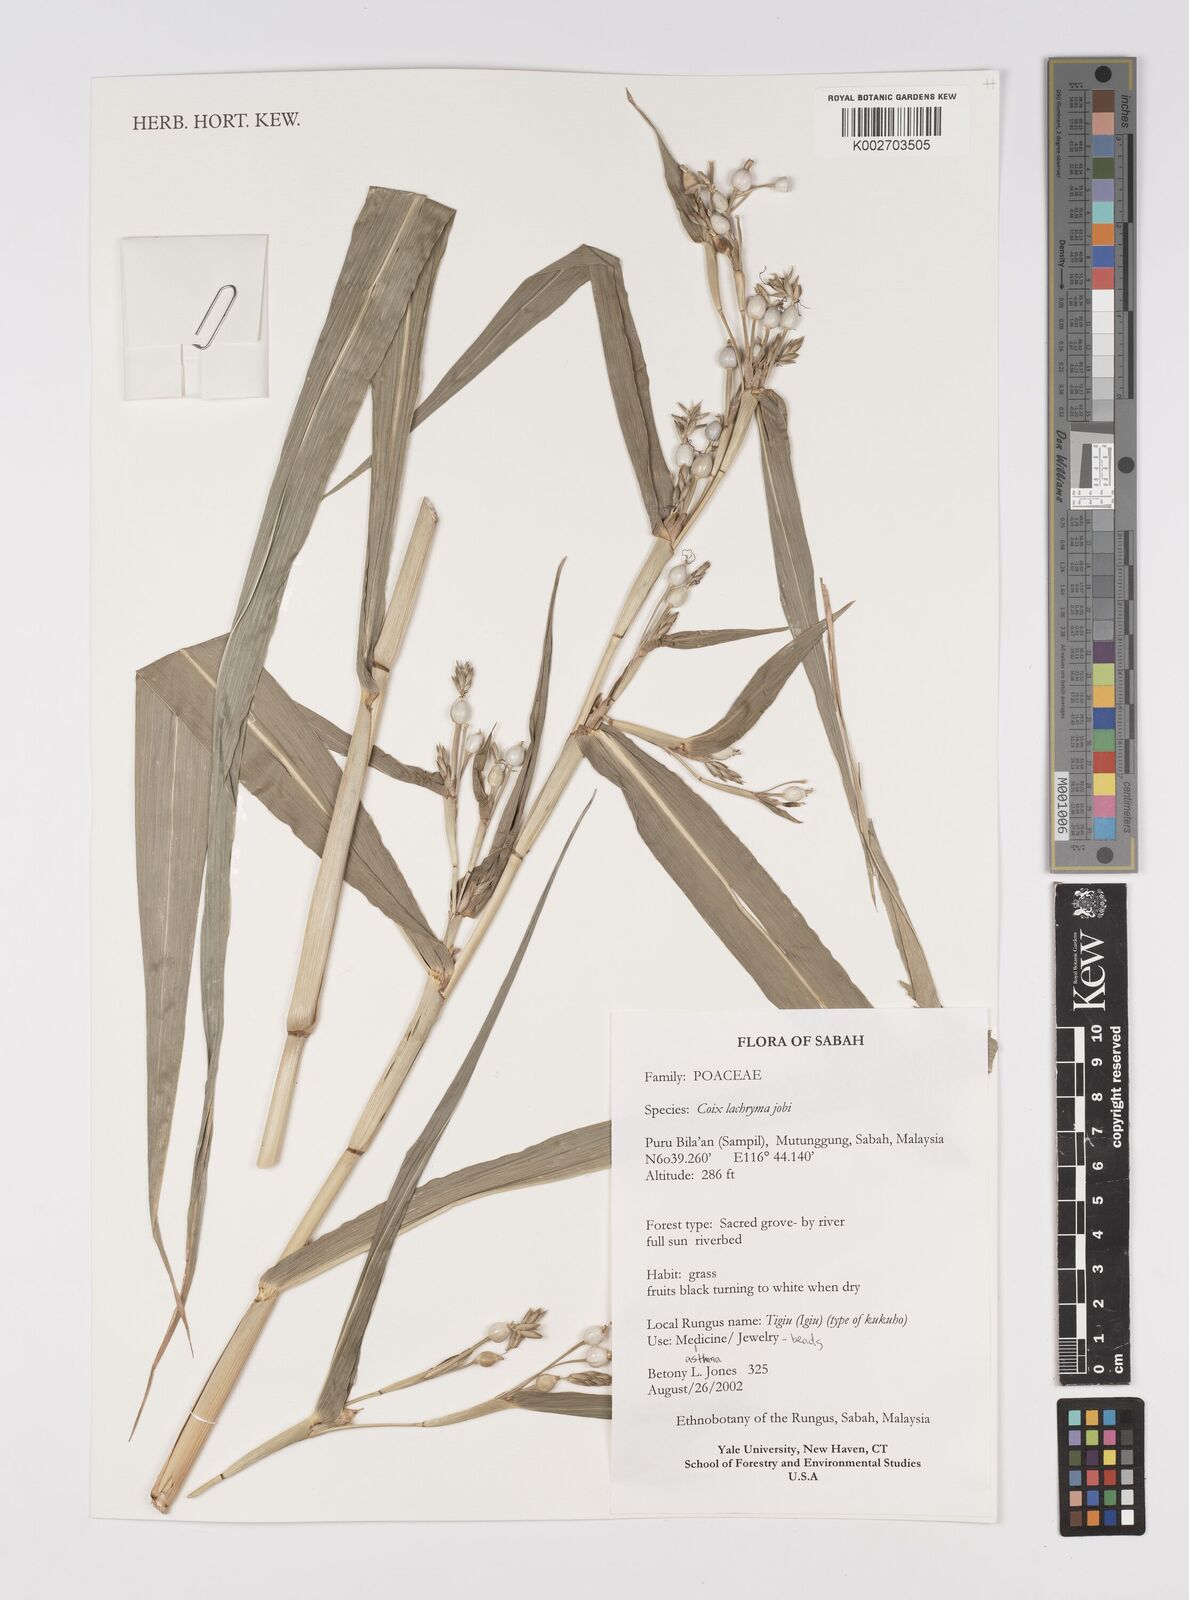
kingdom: Plantae
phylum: Tracheophyta
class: Liliopsida
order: Poales
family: Poaceae
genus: Coix
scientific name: Coix lacryma-jobi
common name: Job's tears
